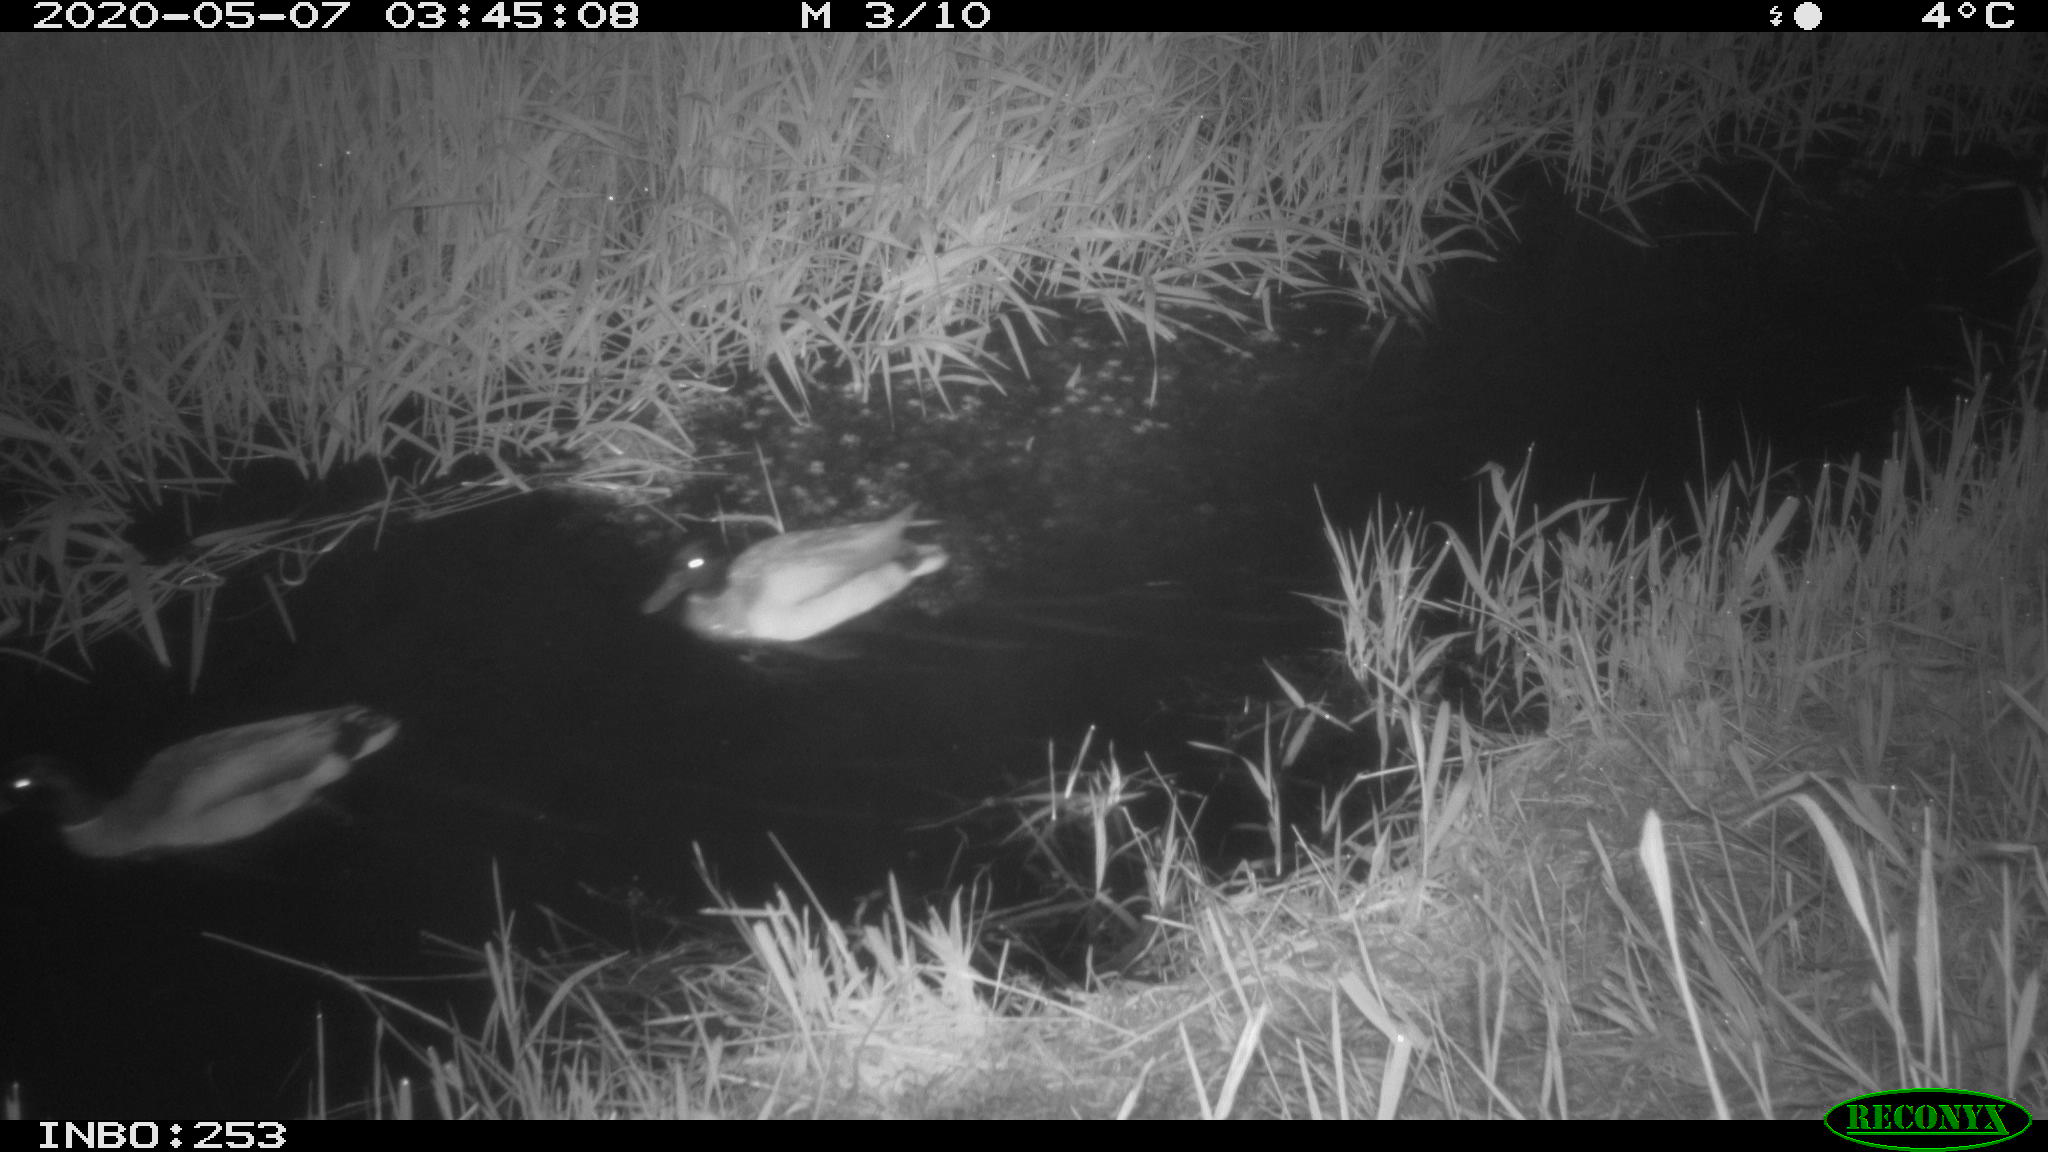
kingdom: Animalia
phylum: Chordata
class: Aves
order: Anseriformes
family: Anatidae
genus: Anas
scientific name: Anas platyrhynchos
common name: Mallard
